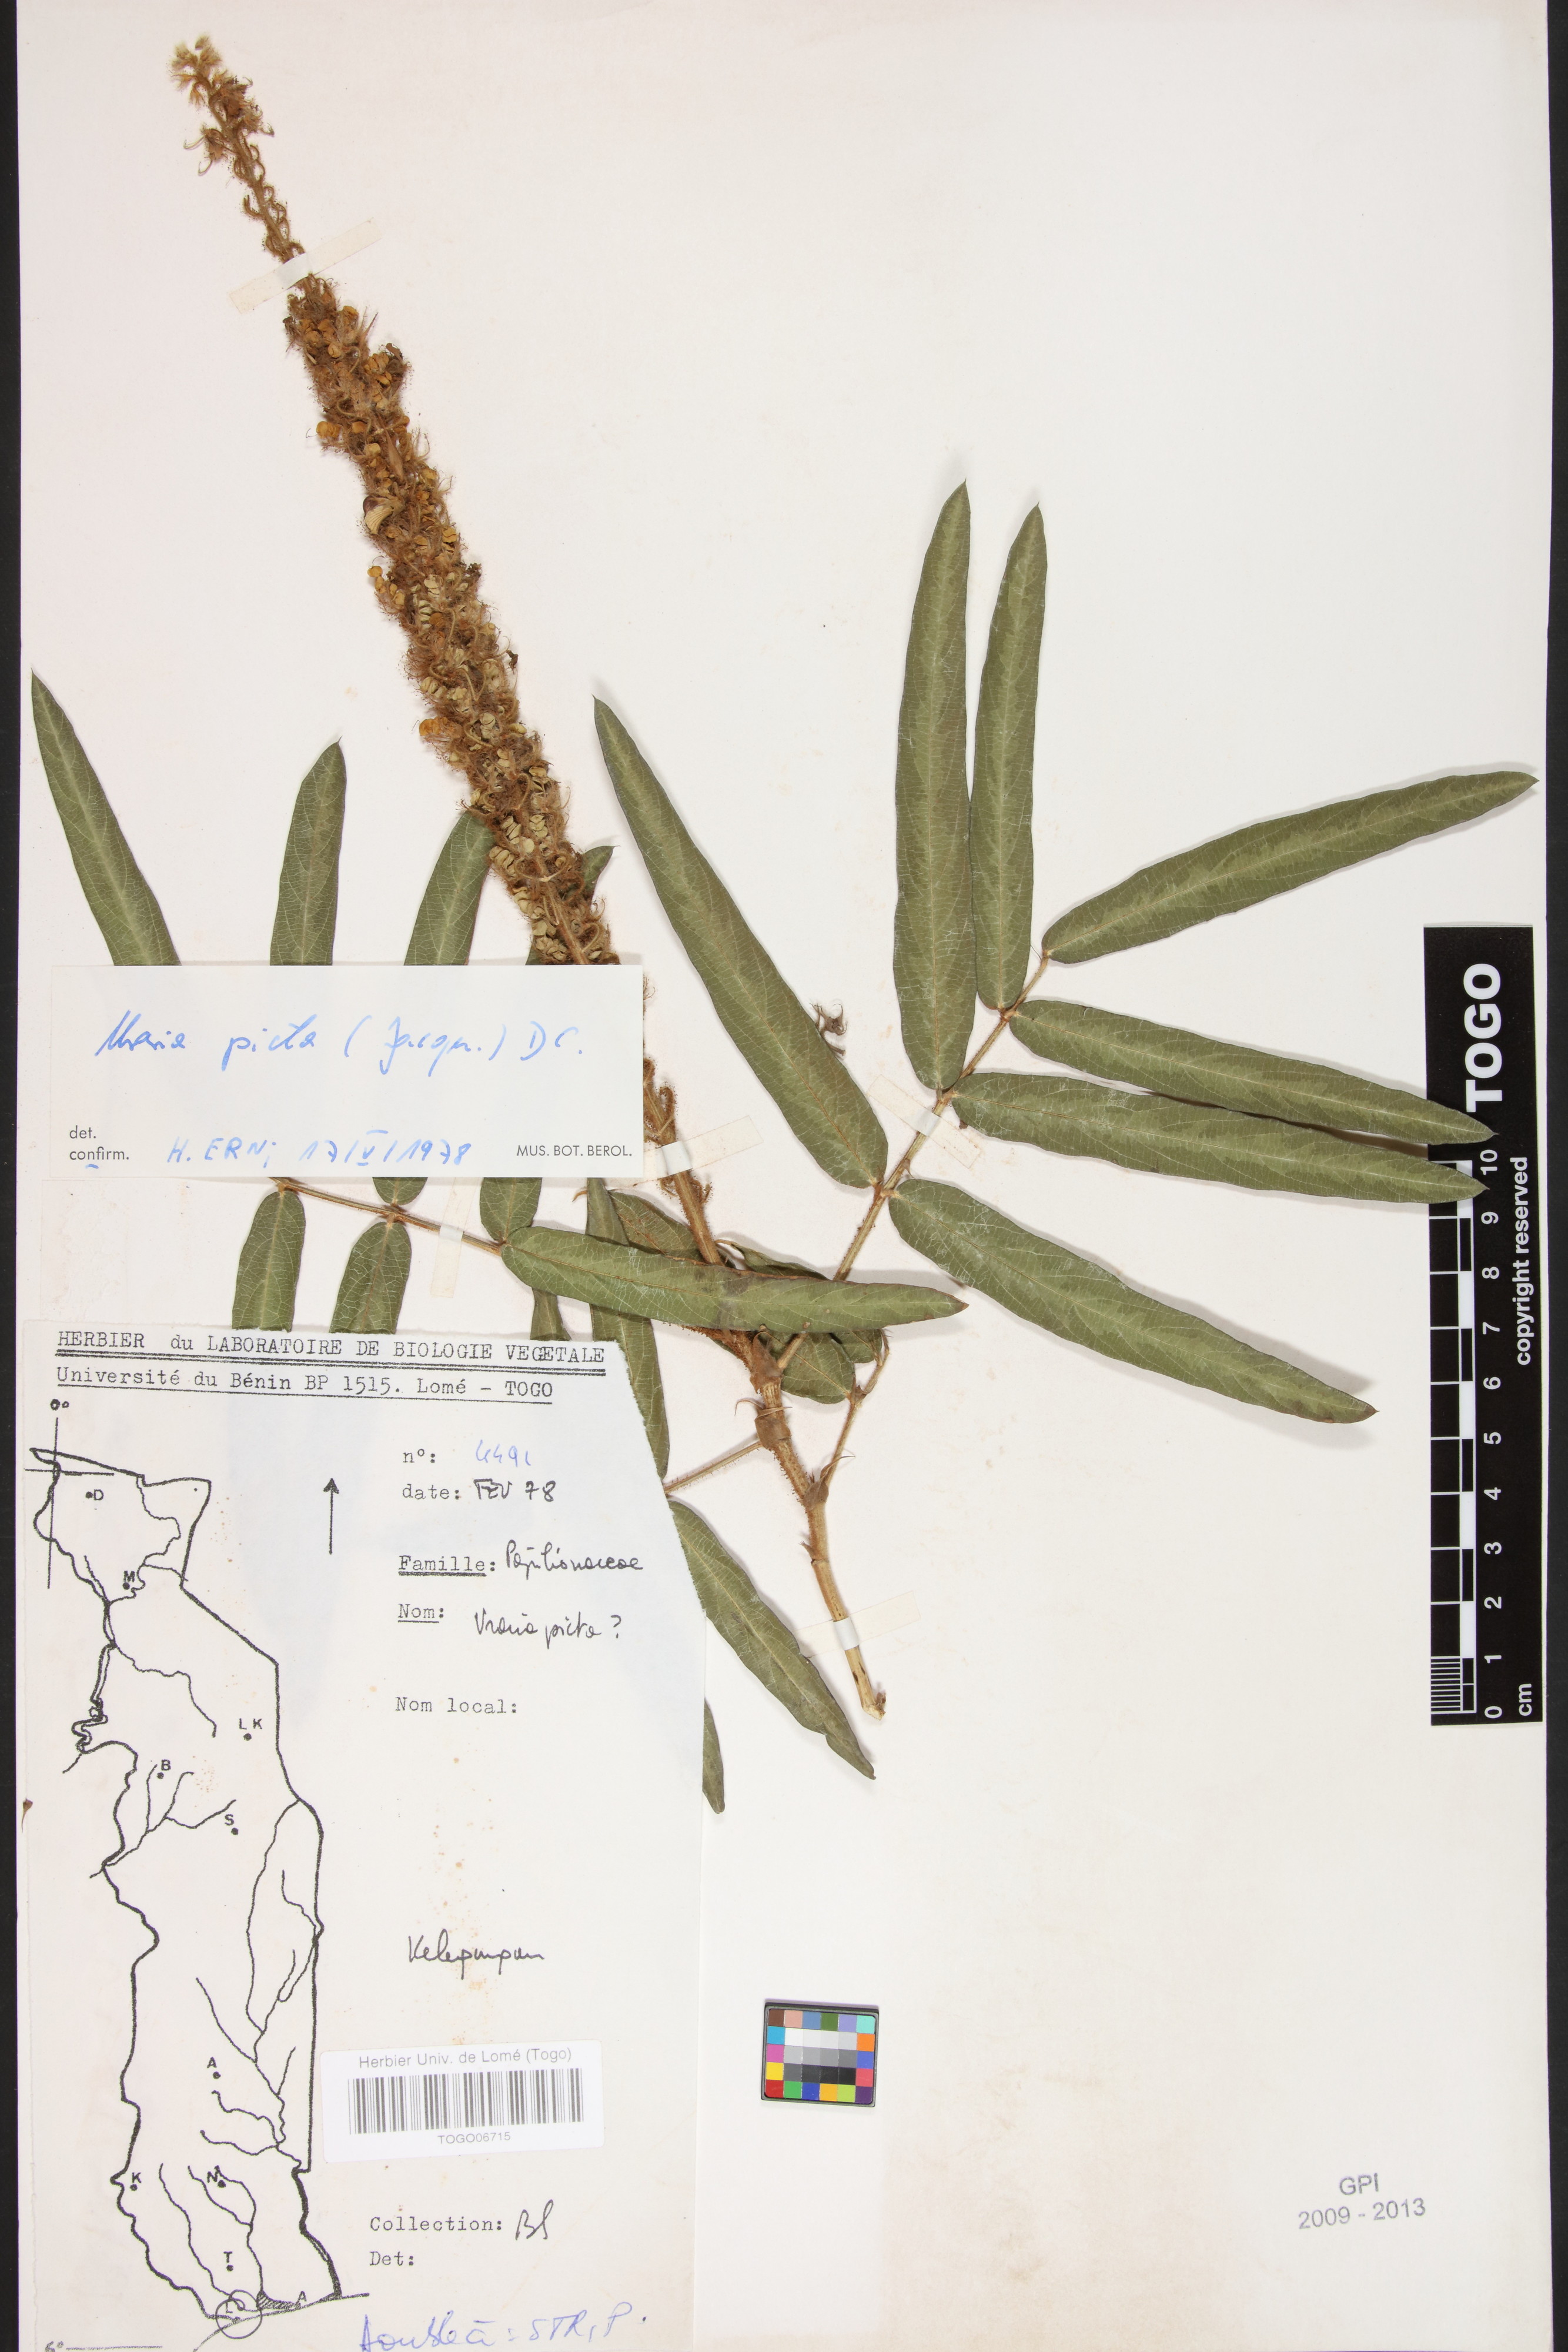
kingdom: Plantae
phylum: Tracheophyta
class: Magnoliopsida
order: Fabales
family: Fabaceae
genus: Uraria
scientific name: Uraria picta
